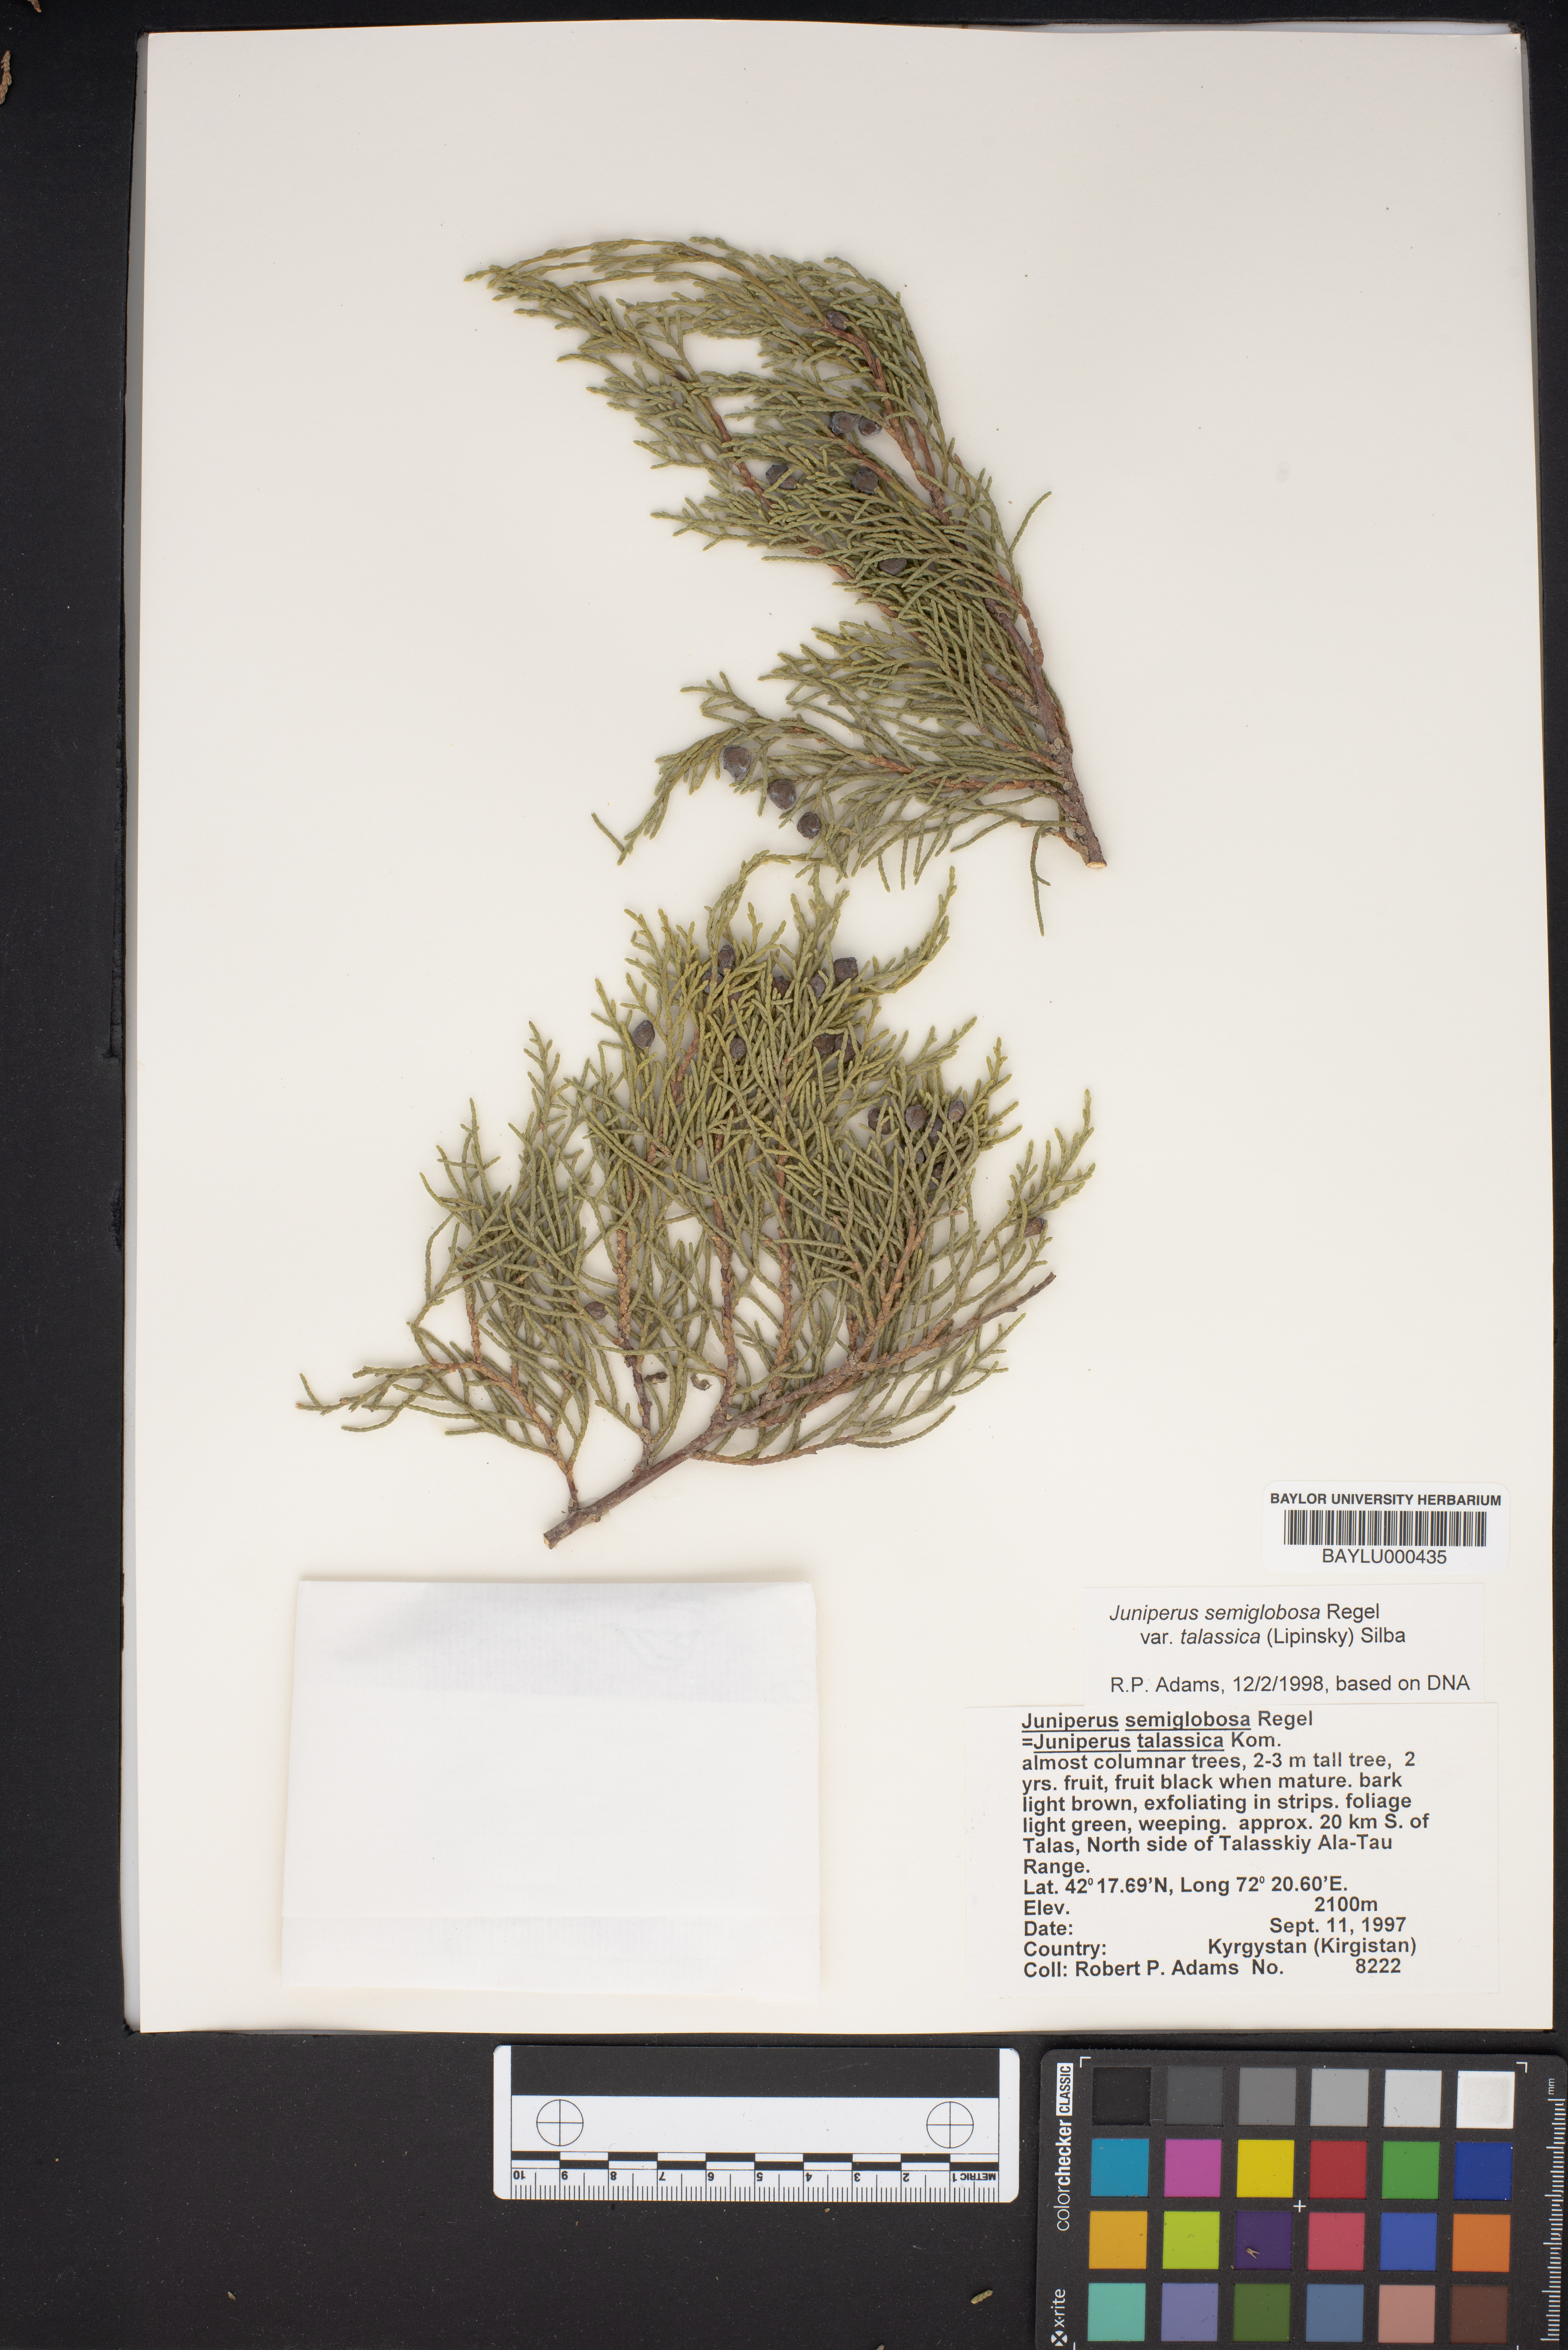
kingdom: Plantae
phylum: Tracheophyta
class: Pinopsida
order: Pinales
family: Cupressaceae
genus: Juniperus
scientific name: Juniperus semiglobosa
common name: Pencil cedar
